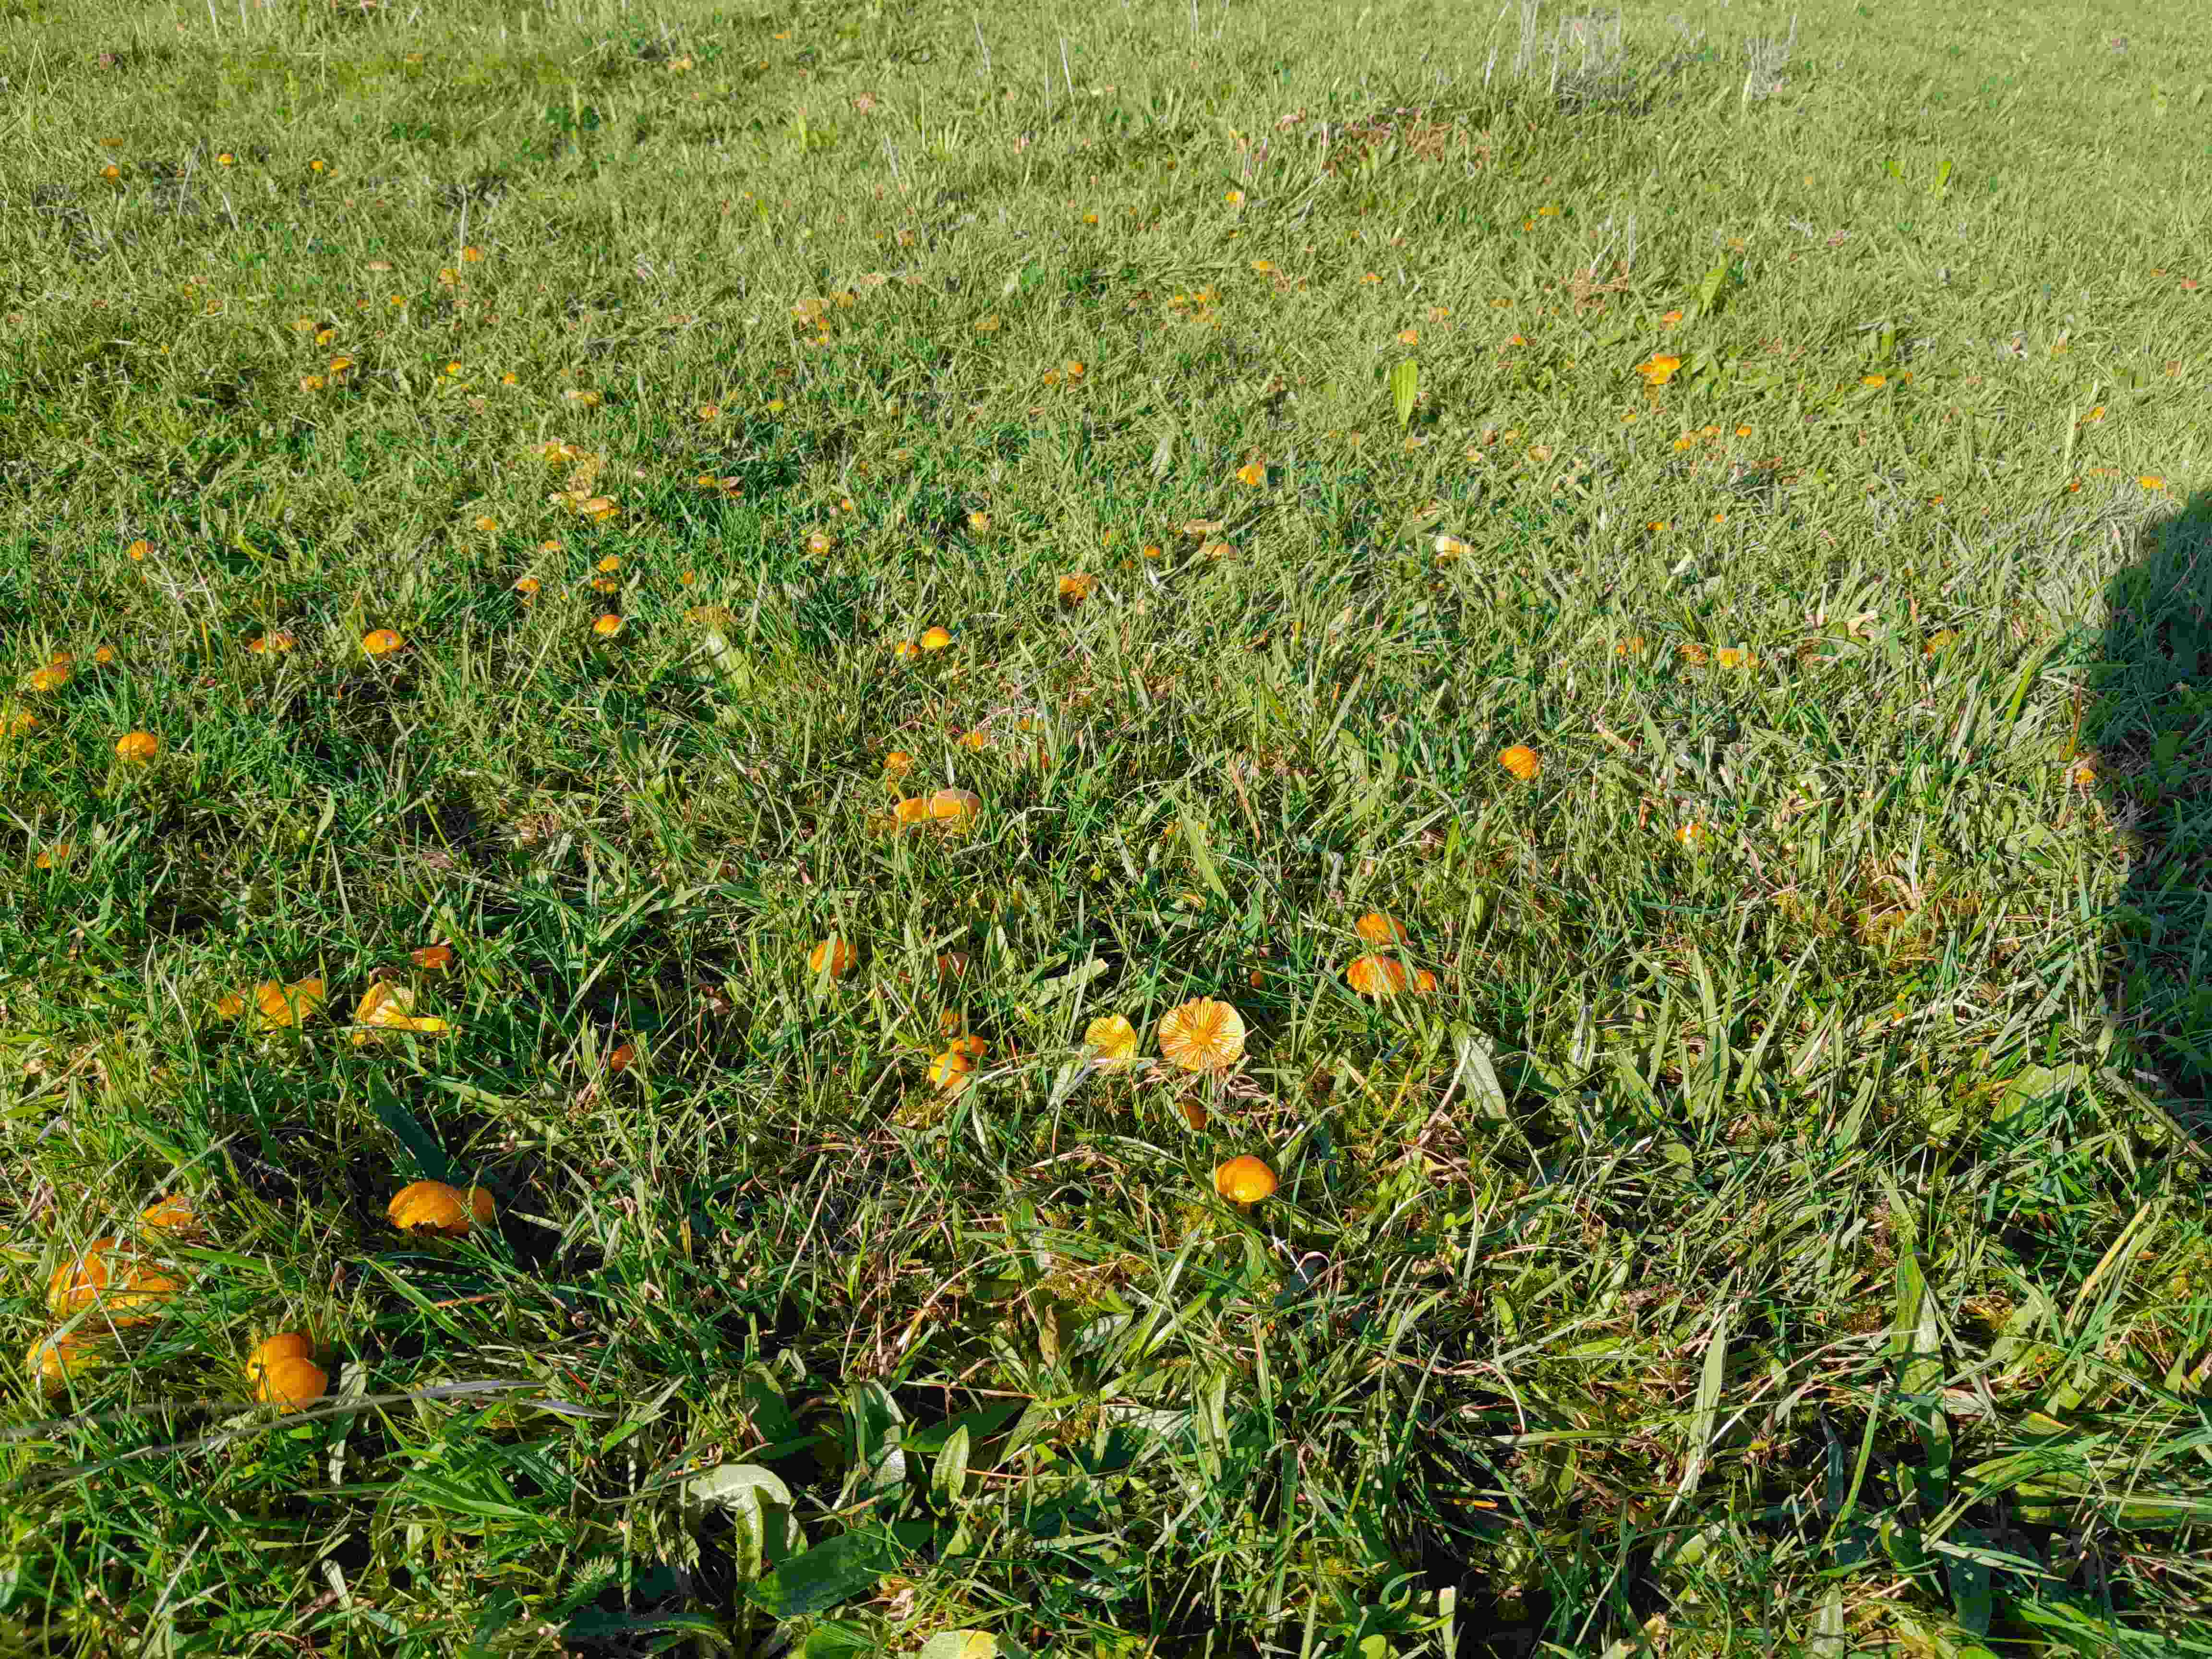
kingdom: Fungi
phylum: Basidiomycota
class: Agaricomycetes
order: Agaricales
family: Hygrophoraceae
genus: Hygrocybe
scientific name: Hygrocybe ceracea
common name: voksgul vokshat
